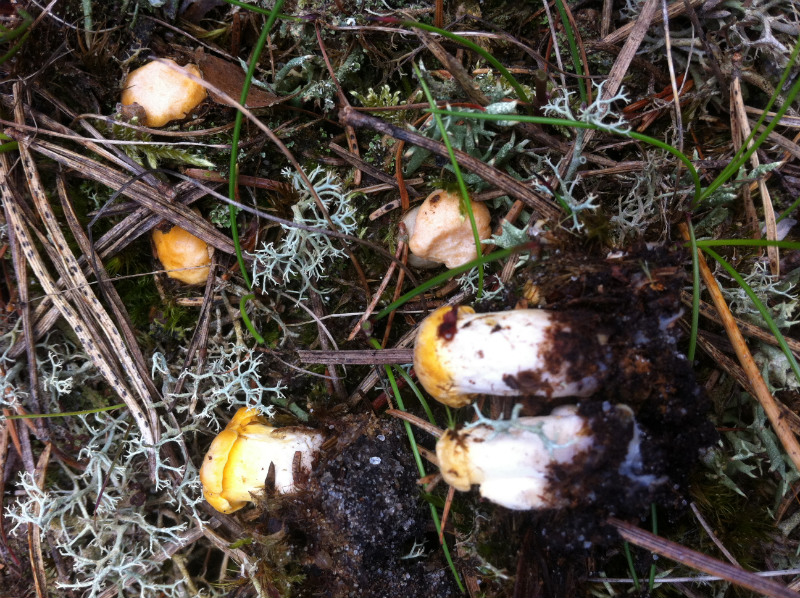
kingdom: Fungi
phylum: Basidiomycota
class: Agaricomycetes
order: Cantharellales
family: Hydnaceae
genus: Cantharellus
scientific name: Cantharellus cibarius
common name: almindelig kantarel
